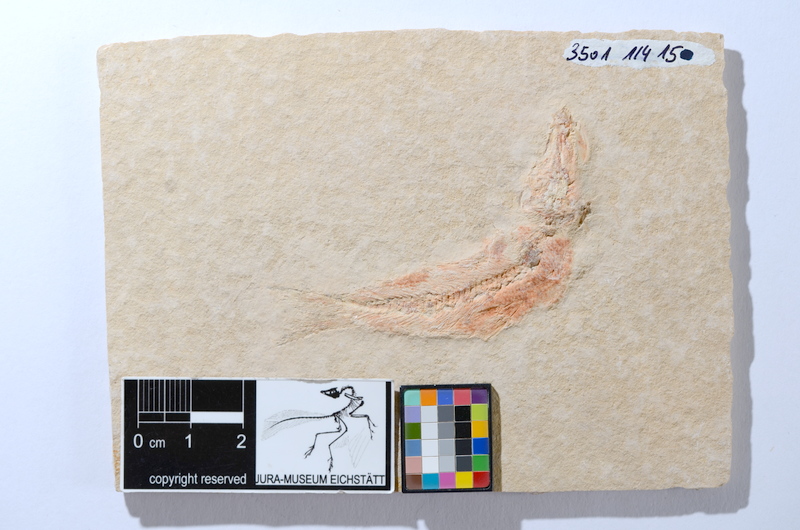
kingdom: Animalia
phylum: Chordata
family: Ascalaboidae
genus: Tharsis
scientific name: Tharsis dubius
